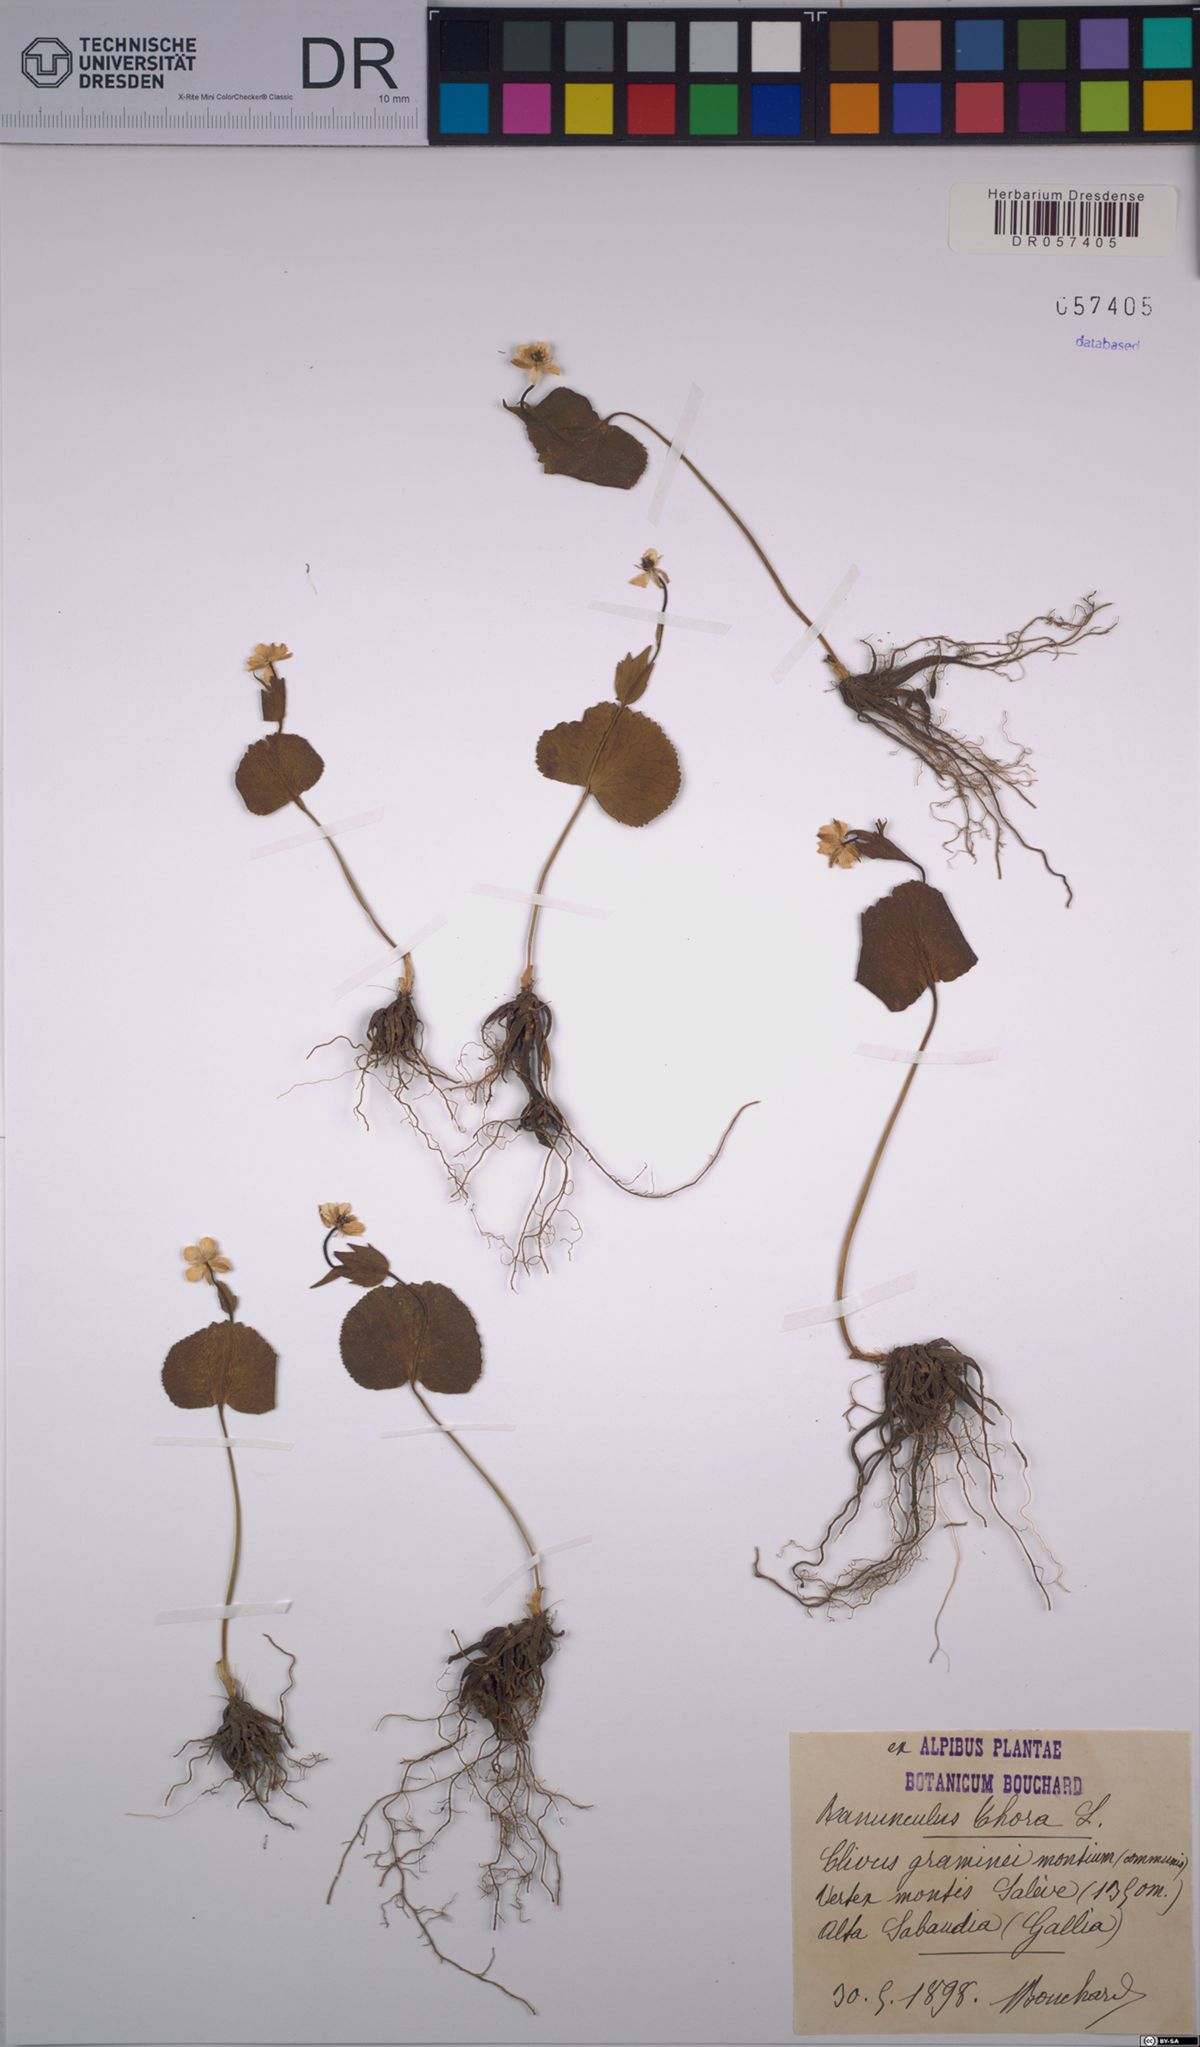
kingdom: Plantae
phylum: Tracheophyta
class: Magnoliopsida
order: Ranunculales
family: Ranunculaceae
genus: Ranunculus
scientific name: Ranunculus thora
